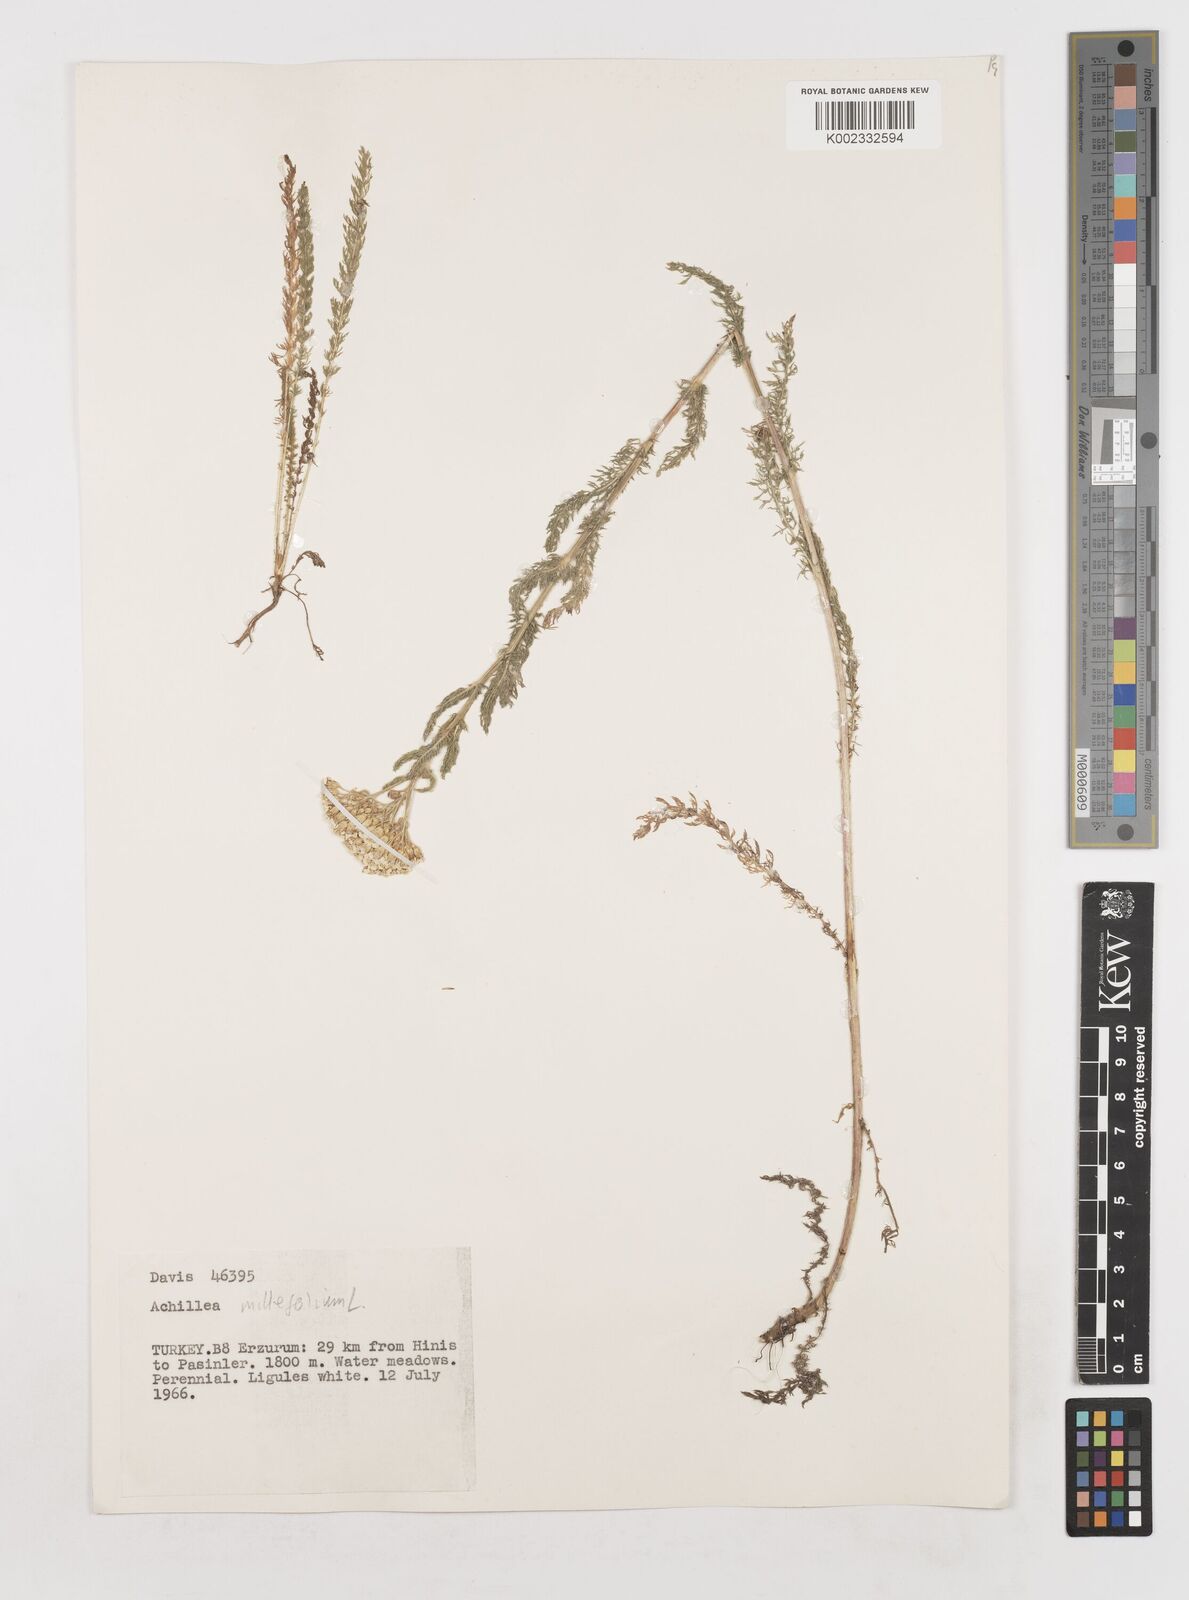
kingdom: Plantae
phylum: Tracheophyta
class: Magnoliopsida
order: Asterales
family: Asteraceae
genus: Achillea
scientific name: Achillea millefolium
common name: Yarrow
